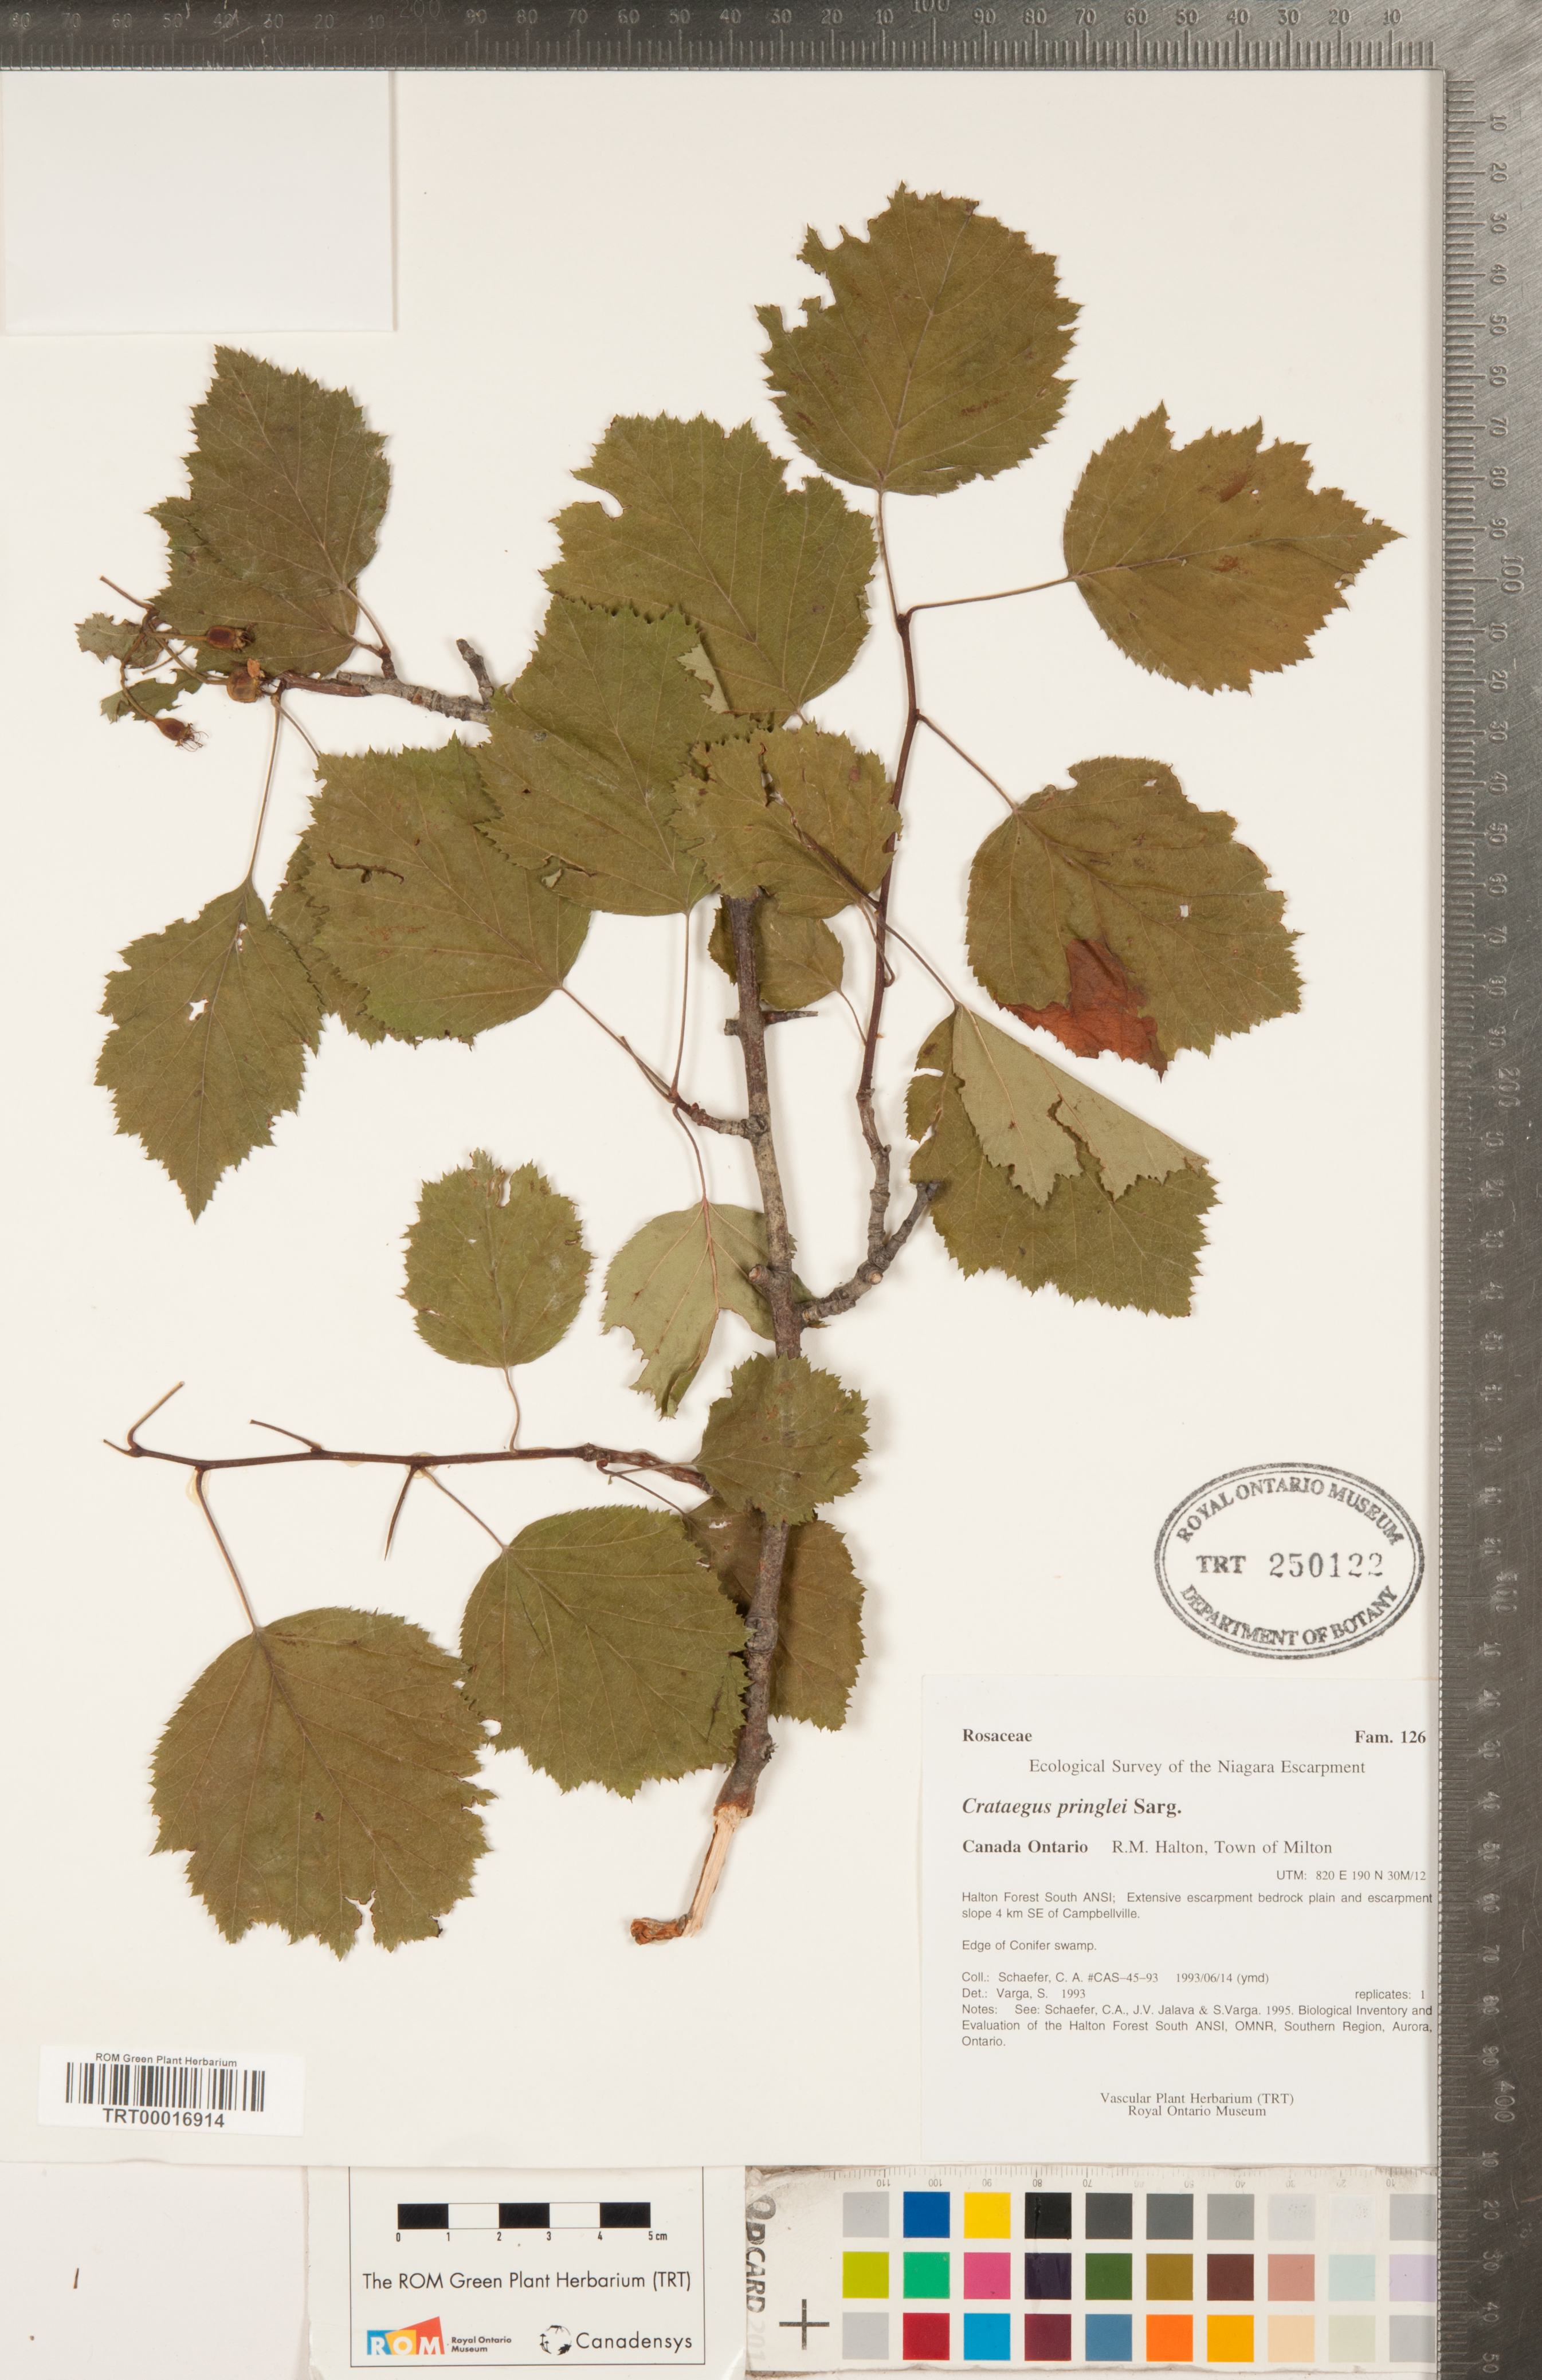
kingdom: Plantae
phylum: Tracheophyta
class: Magnoliopsida
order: Rosales
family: Rosaceae
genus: Crataegus
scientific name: Crataegus coccinea
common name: Scarlet hawthorn
